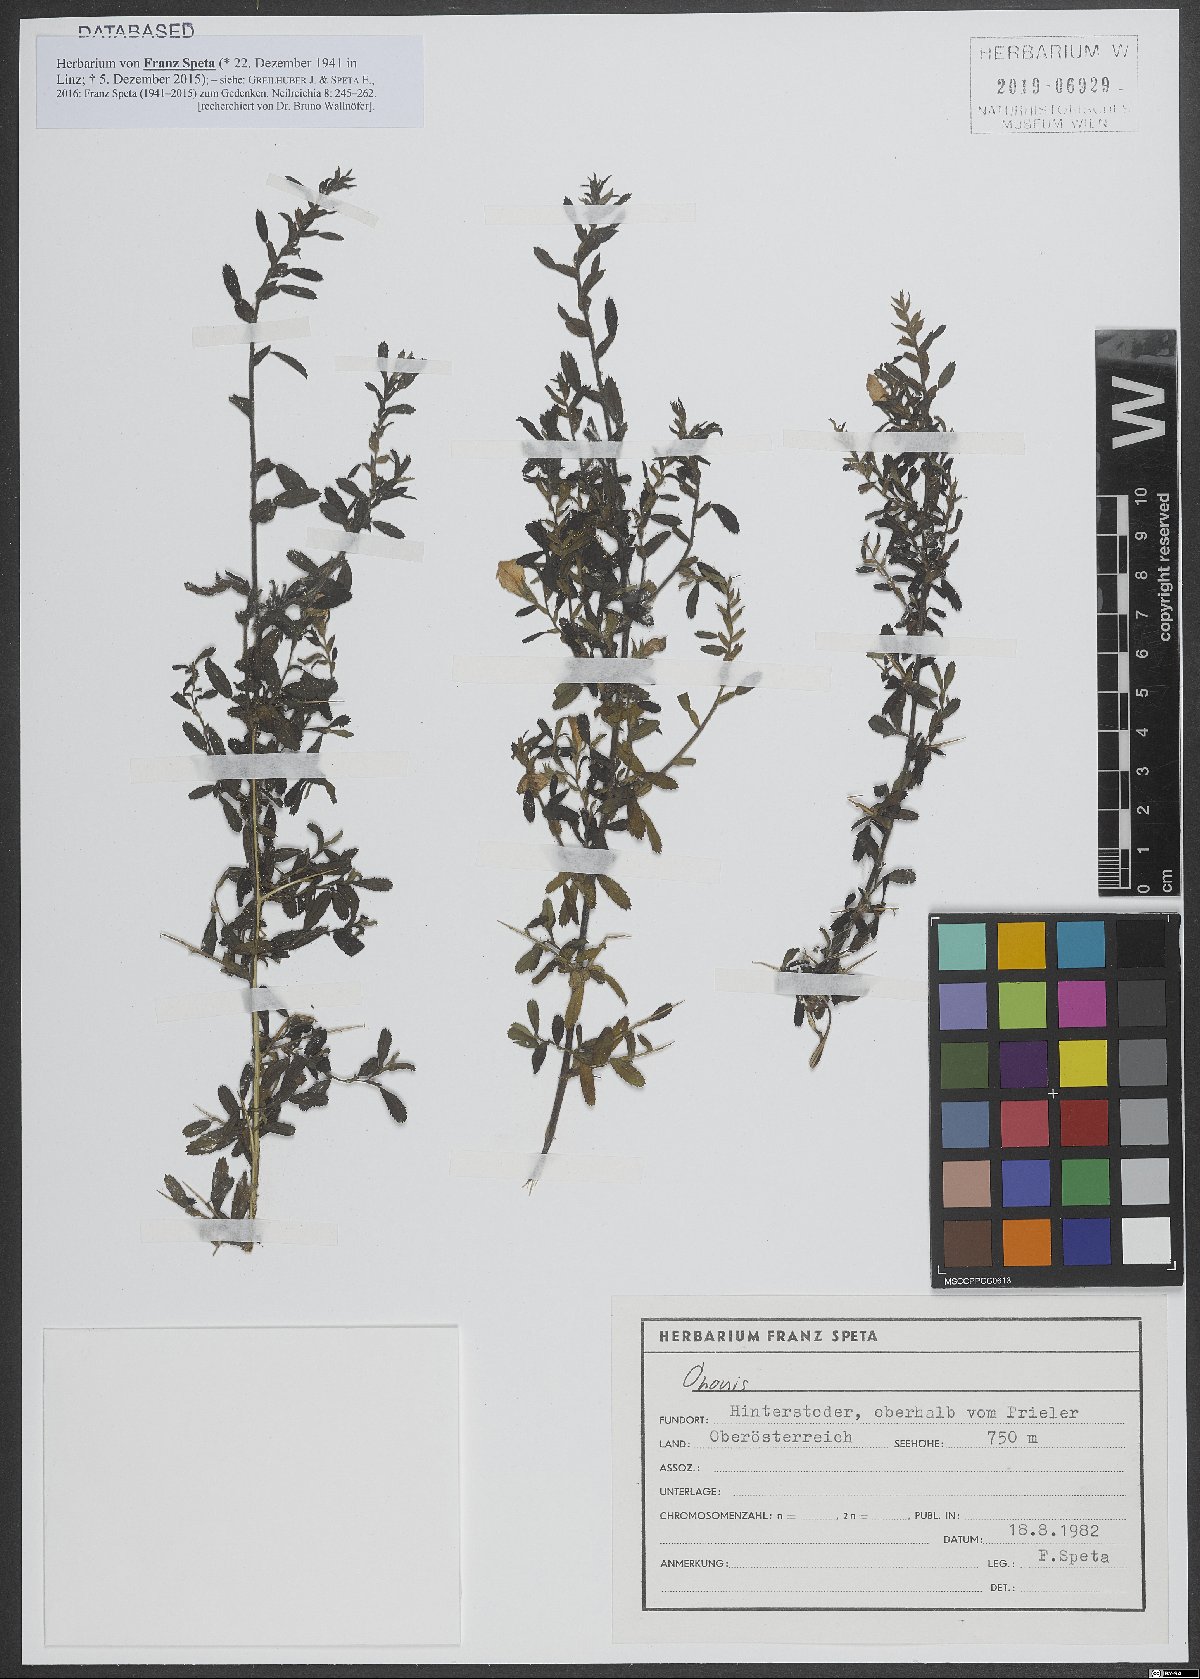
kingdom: Plantae
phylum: Tracheophyta
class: Magnoliopsida
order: Fabales
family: Fabaceae
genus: Ononis
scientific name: Ononis
